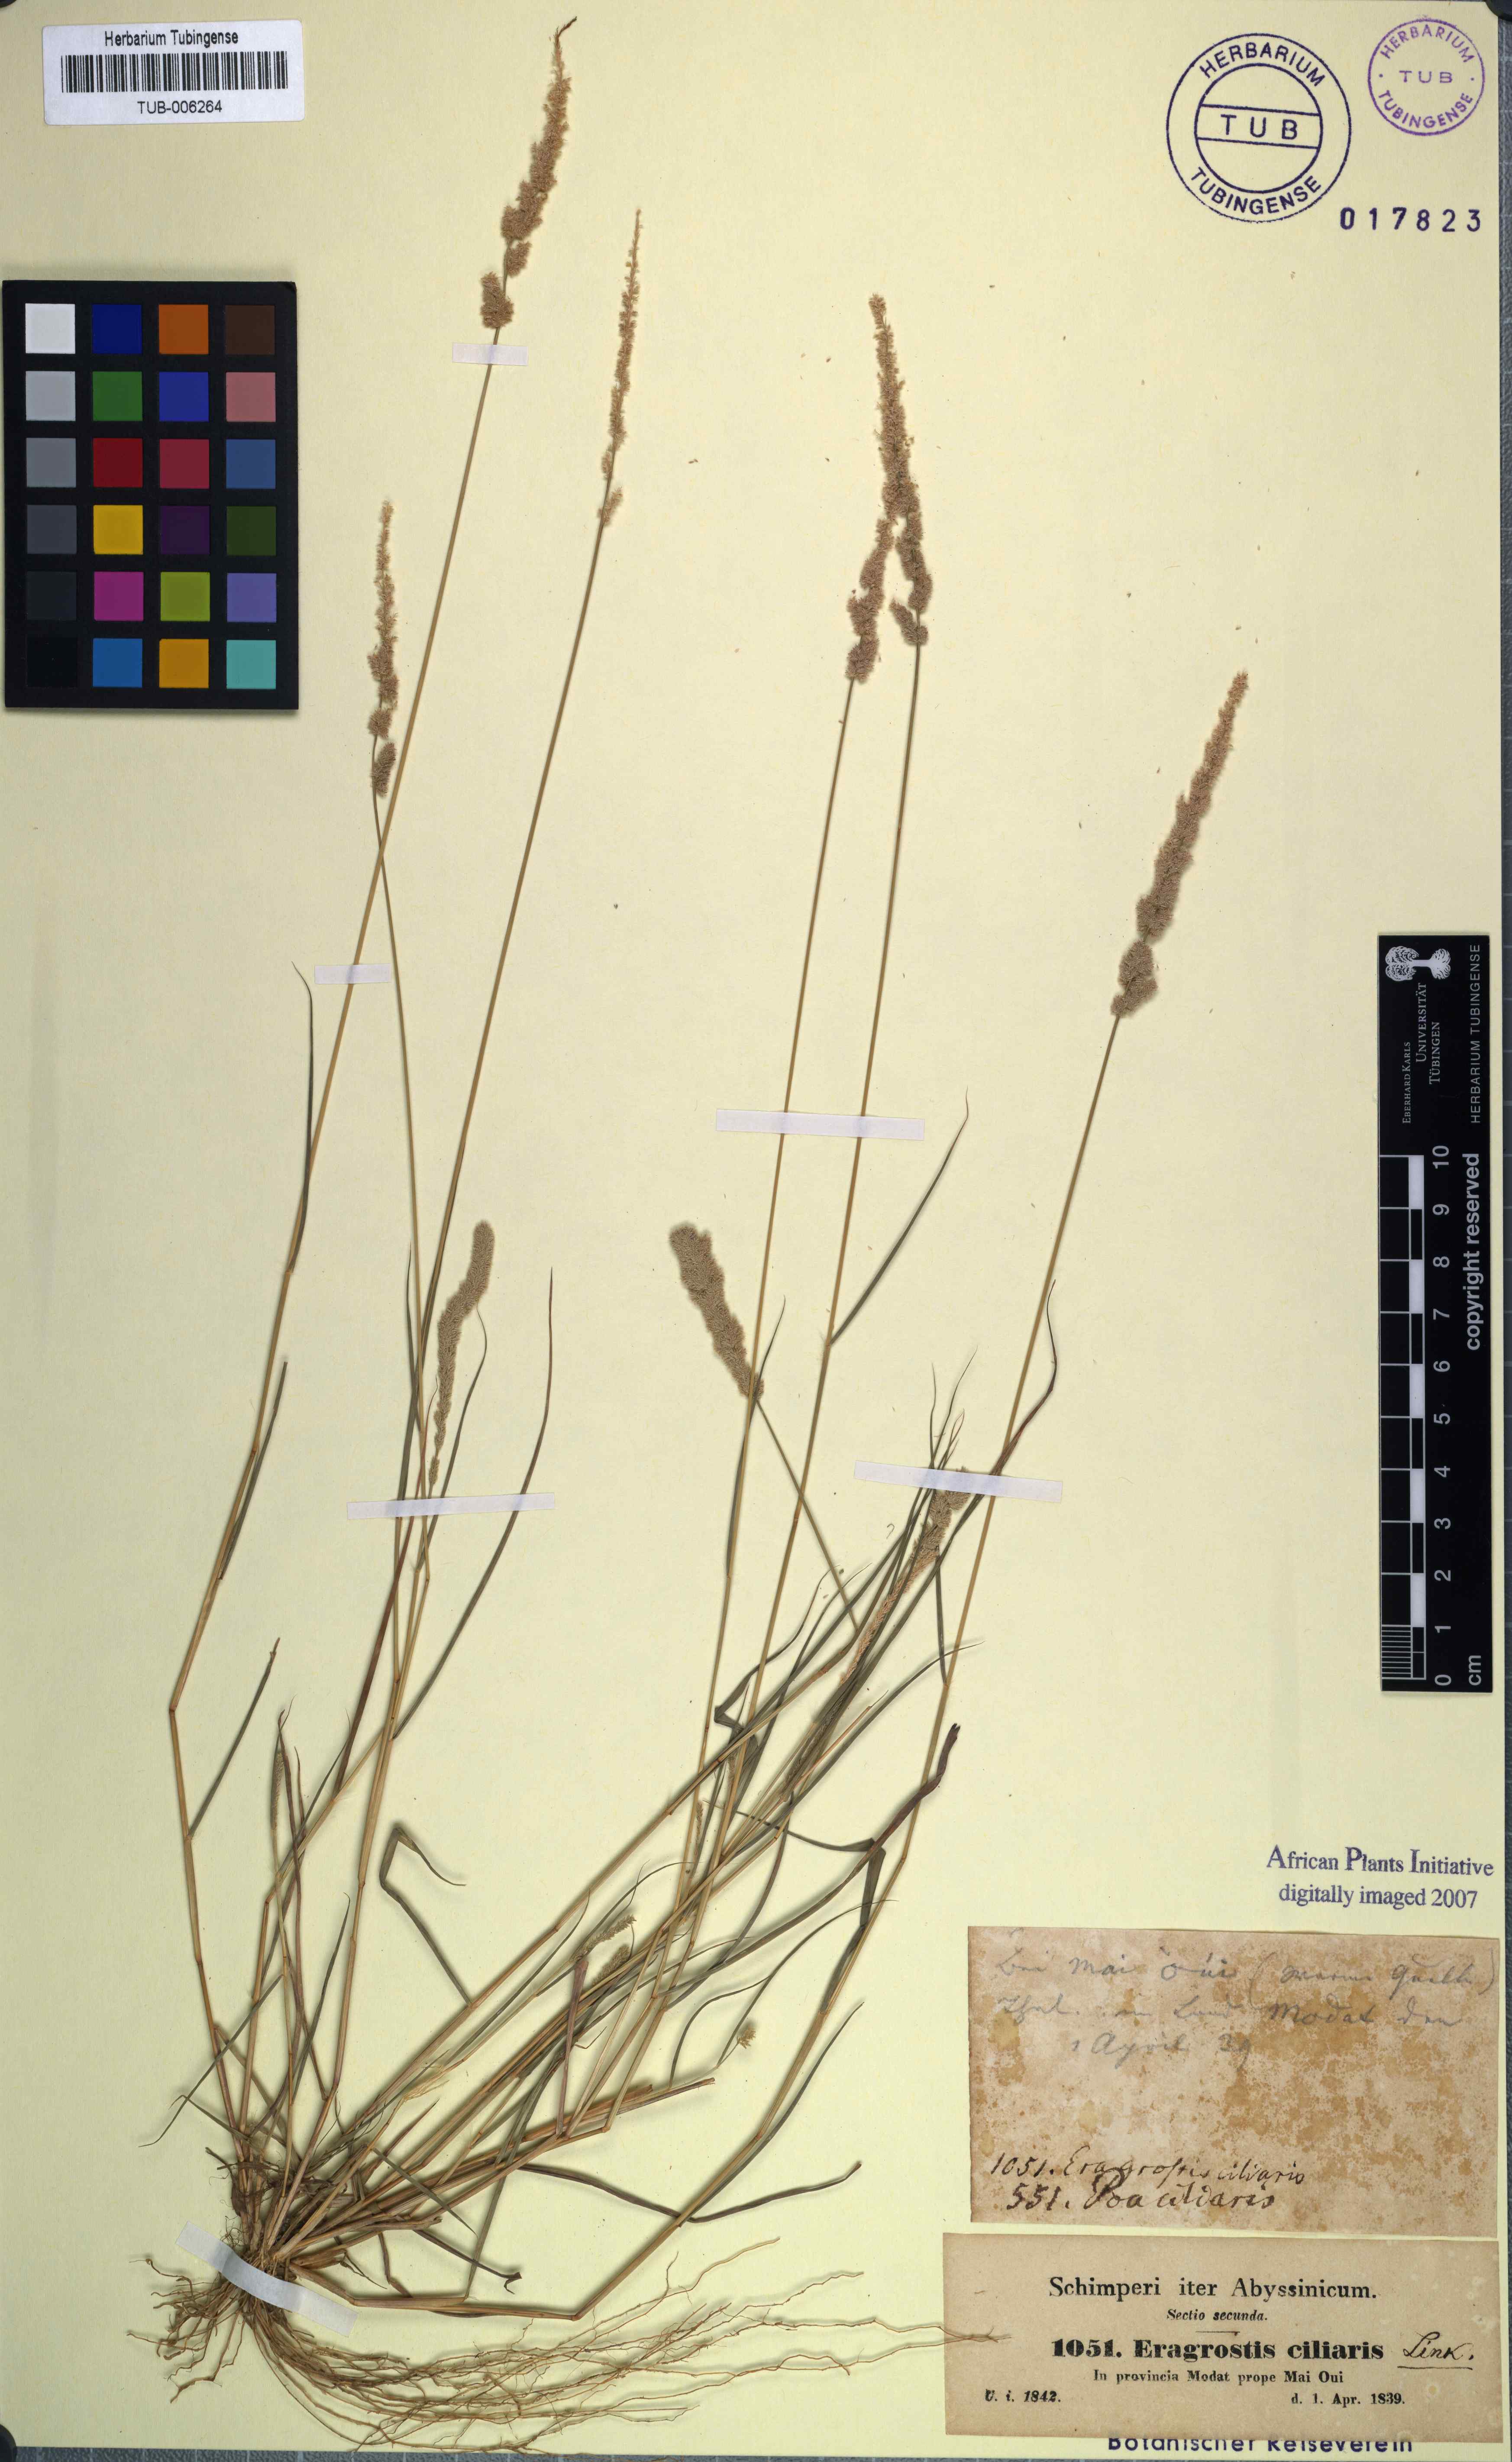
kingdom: Plantae
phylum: Tracheophyta
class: Liliopsida
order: Poales
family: Poaceae
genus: Eragrostis
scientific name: Eragrostis ciliaris
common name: Gophertail lovegrass
